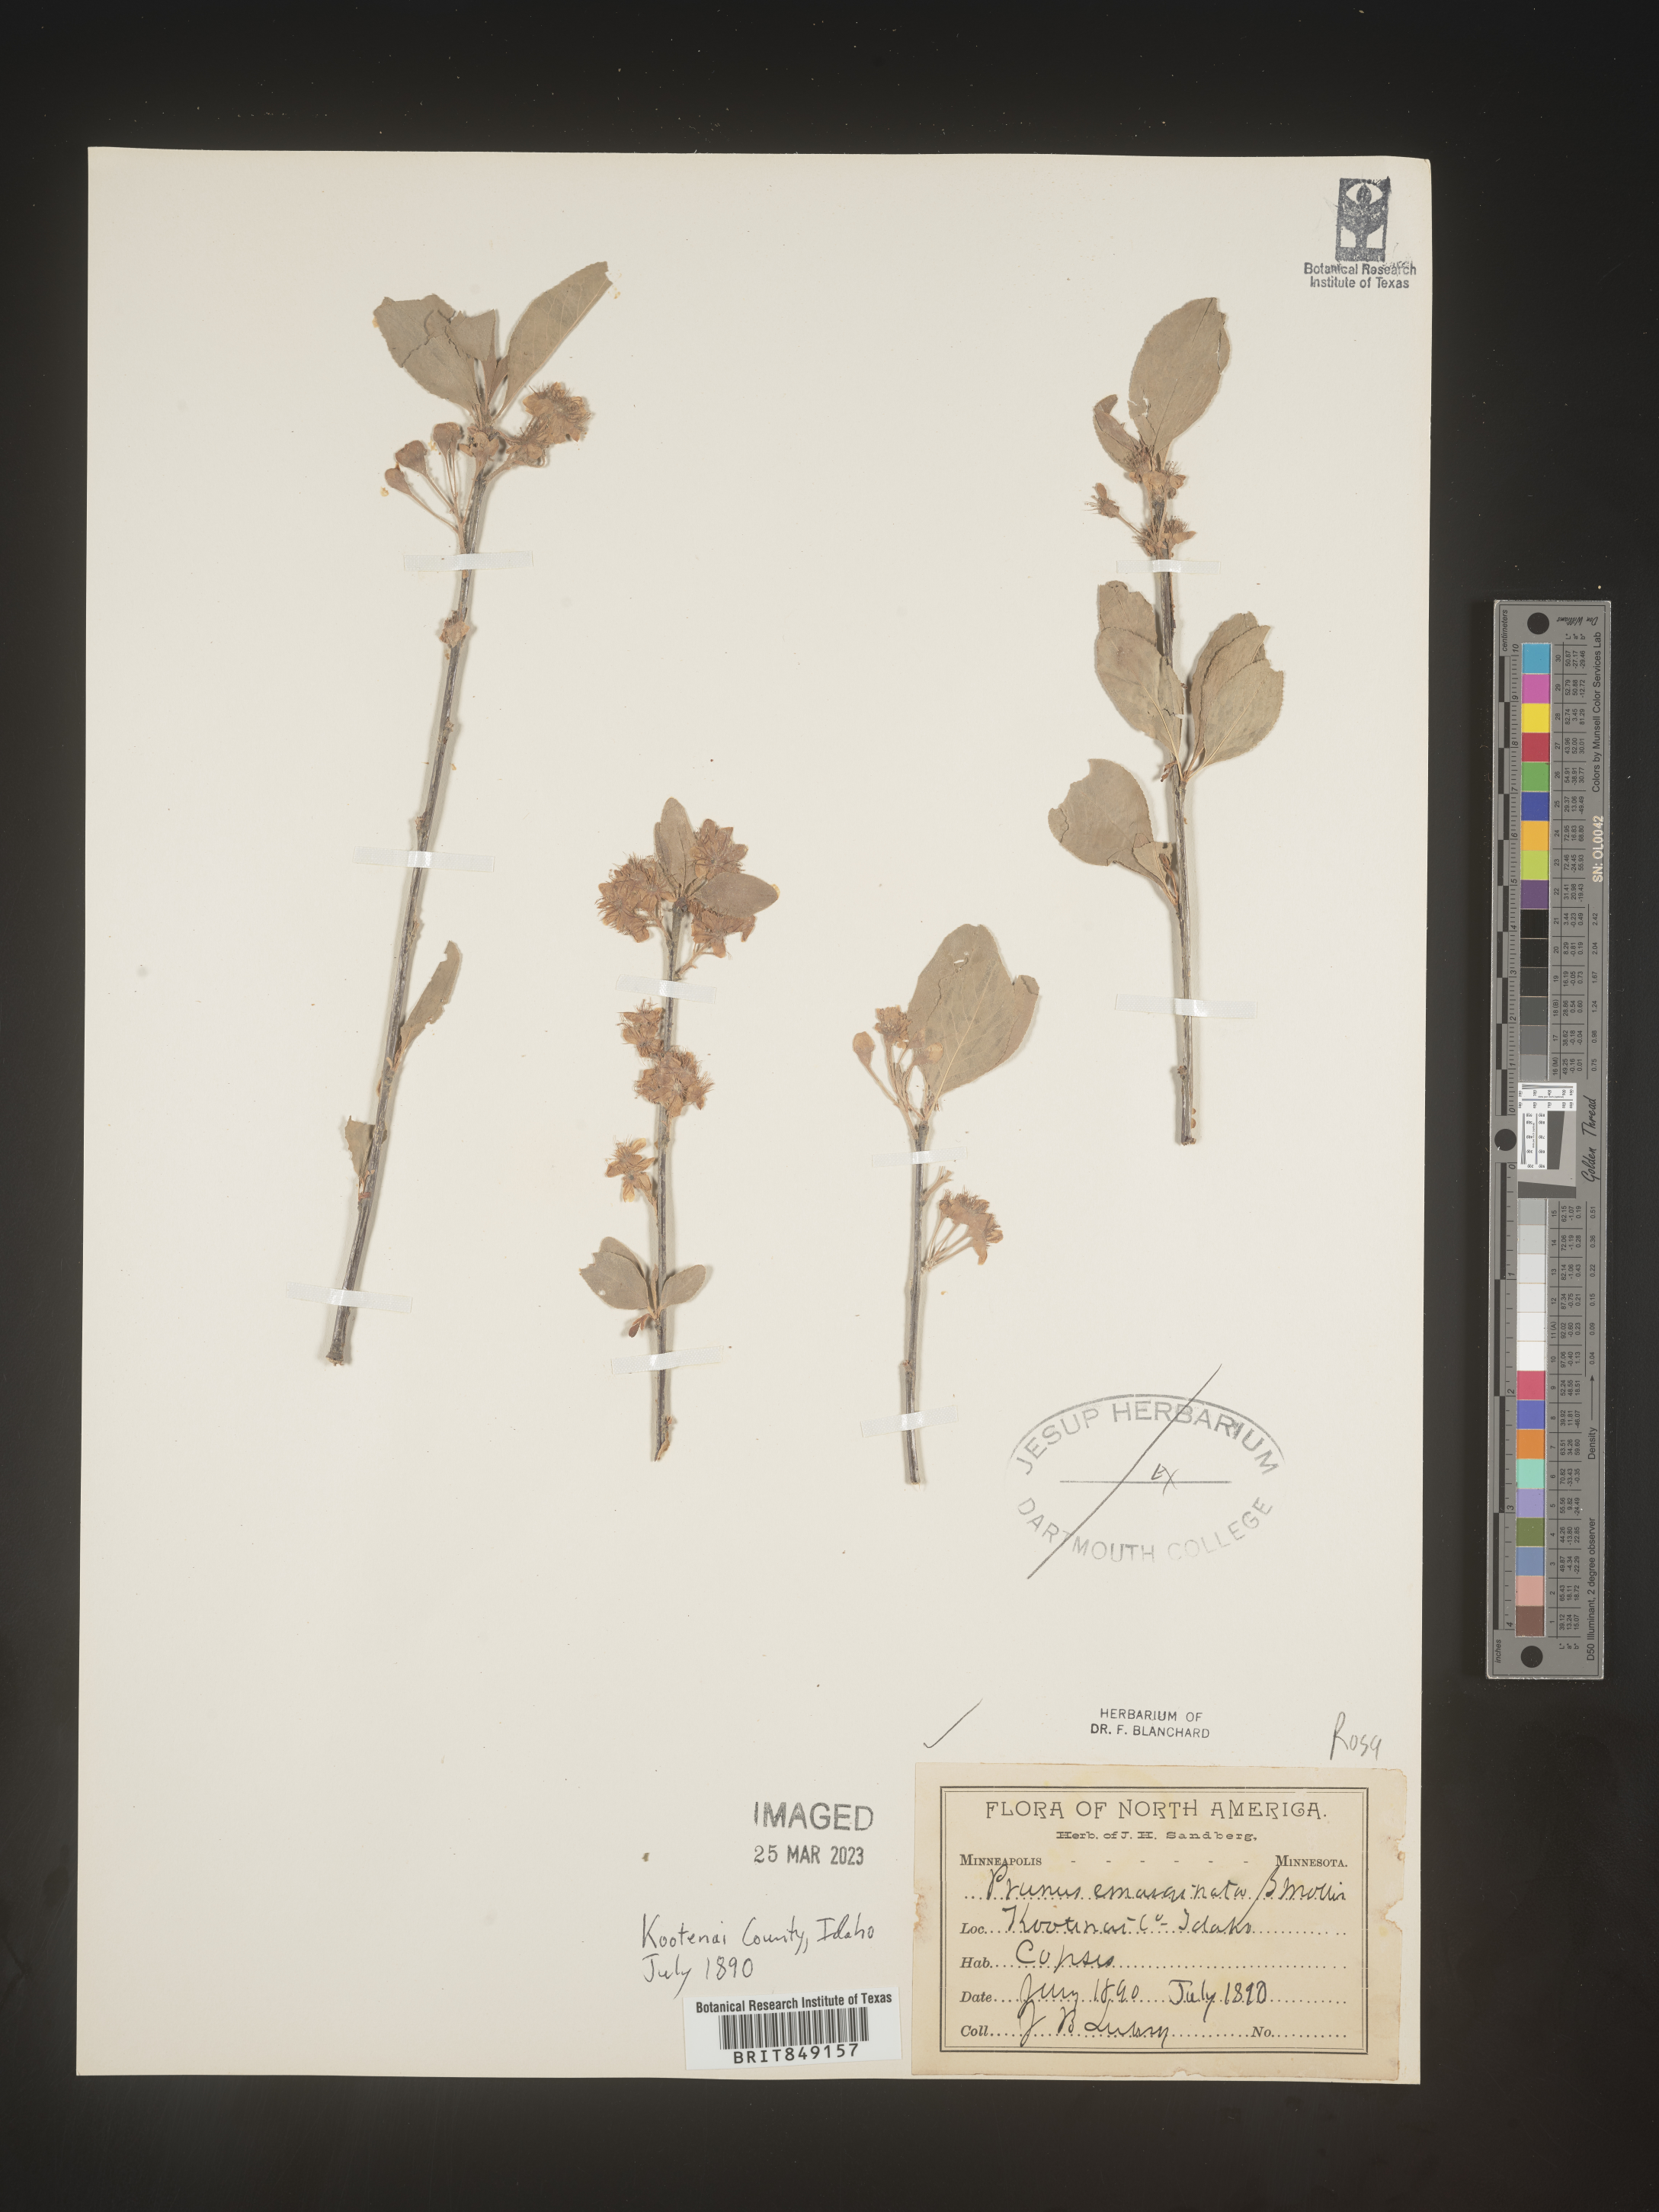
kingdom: Plantae
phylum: Tracheophyta
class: Magnoliopsida
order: Rosales
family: Rosaceae
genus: Prunus
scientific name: Prunus emarginata
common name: Bitter cherry
